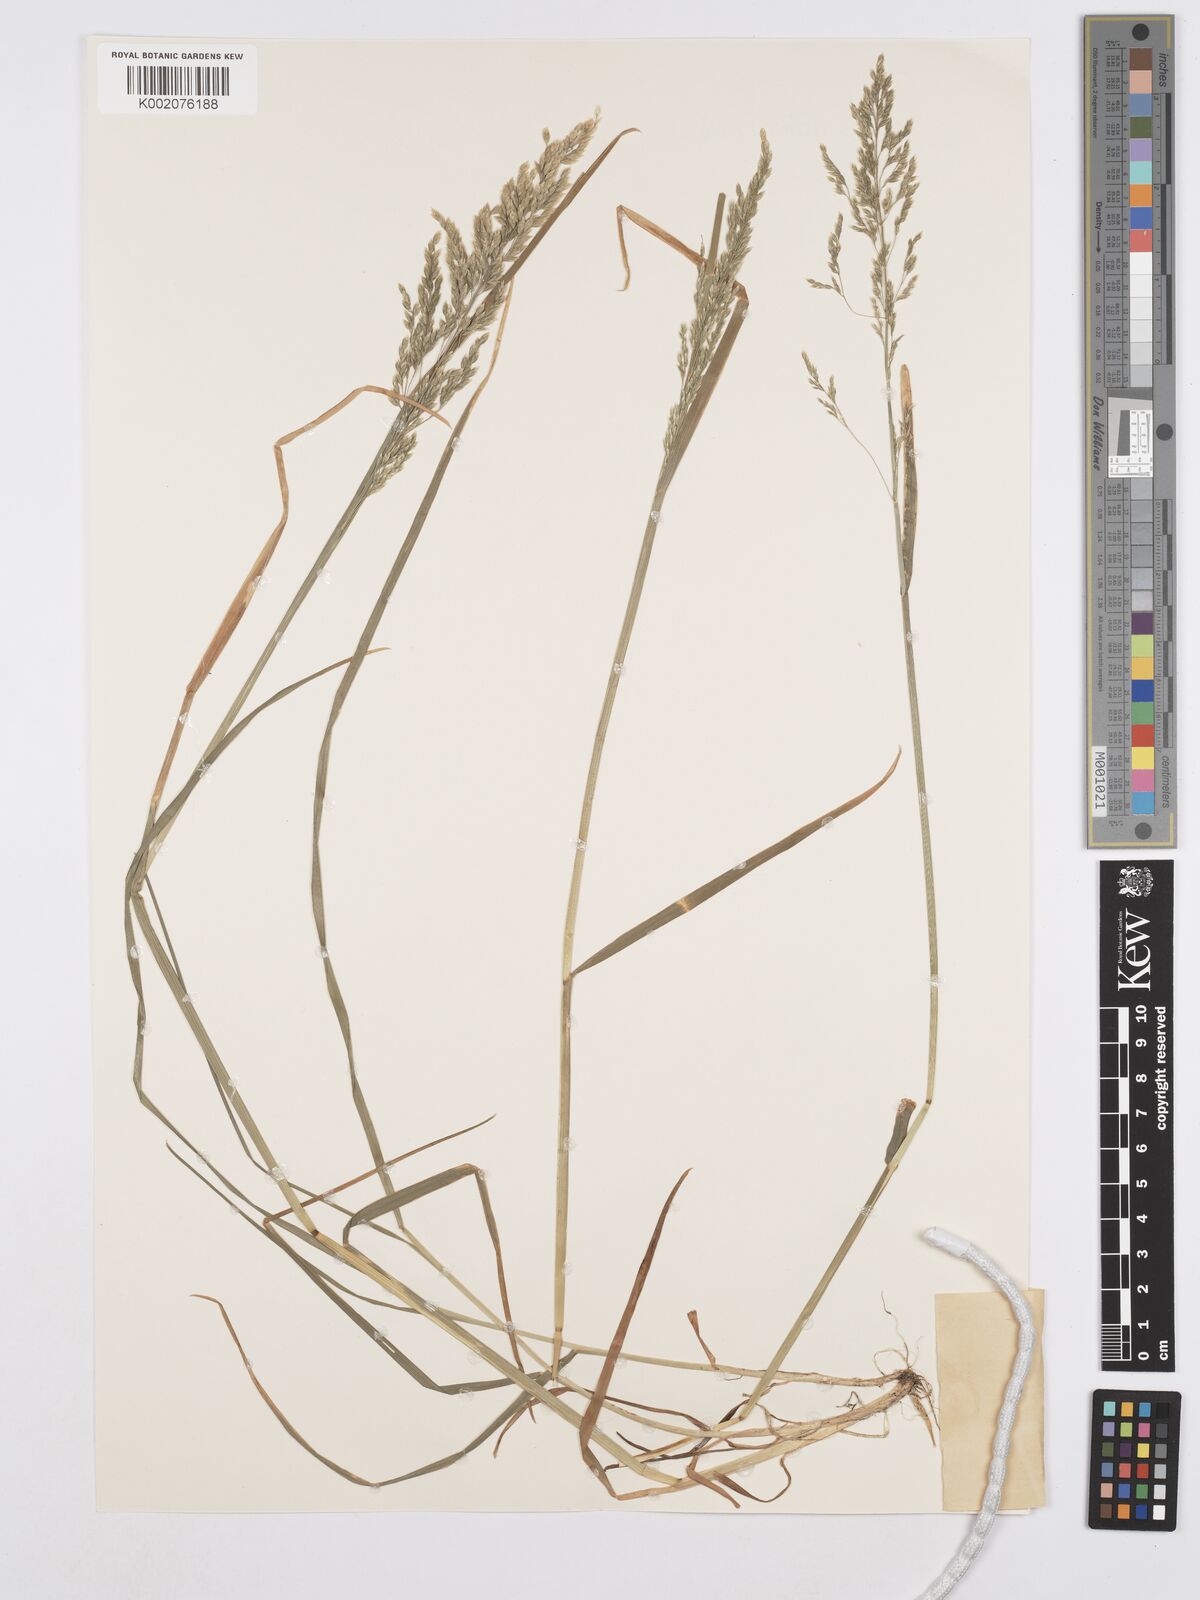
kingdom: Plantae
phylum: Tracheophyta
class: Liliopsida
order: Poales
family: Poaceae
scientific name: Poaceae
